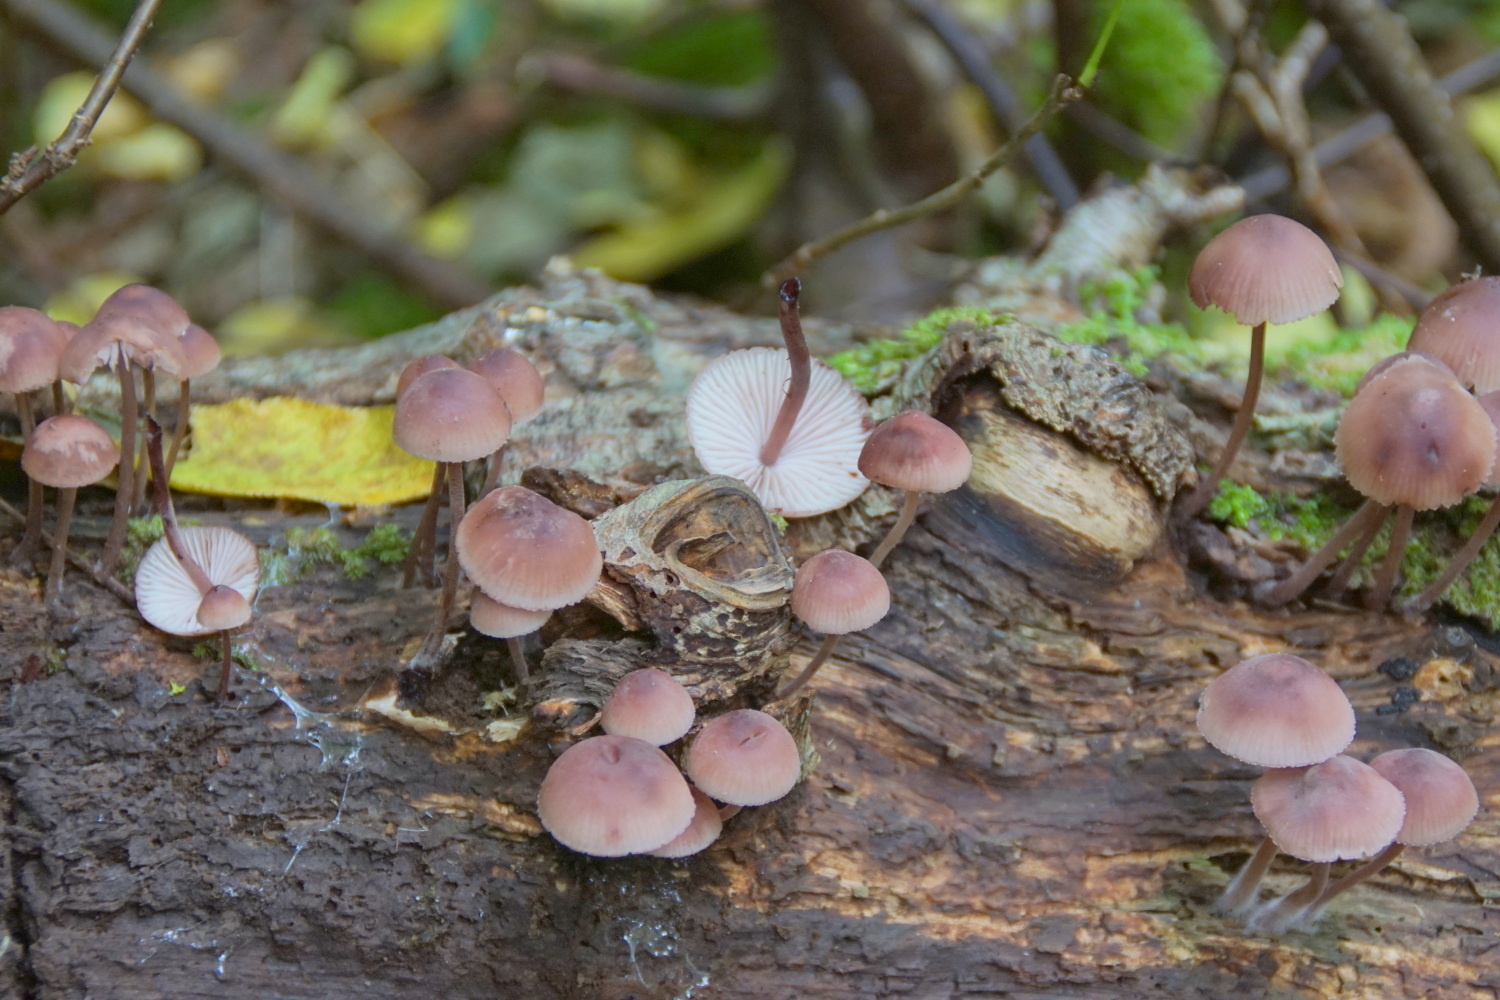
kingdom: Fungi
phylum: Basidiomycota
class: Agaricomycetes
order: Agaricales
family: Mycenaceae
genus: Mycena
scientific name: Mycena haematopus
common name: blødende huesvamp
